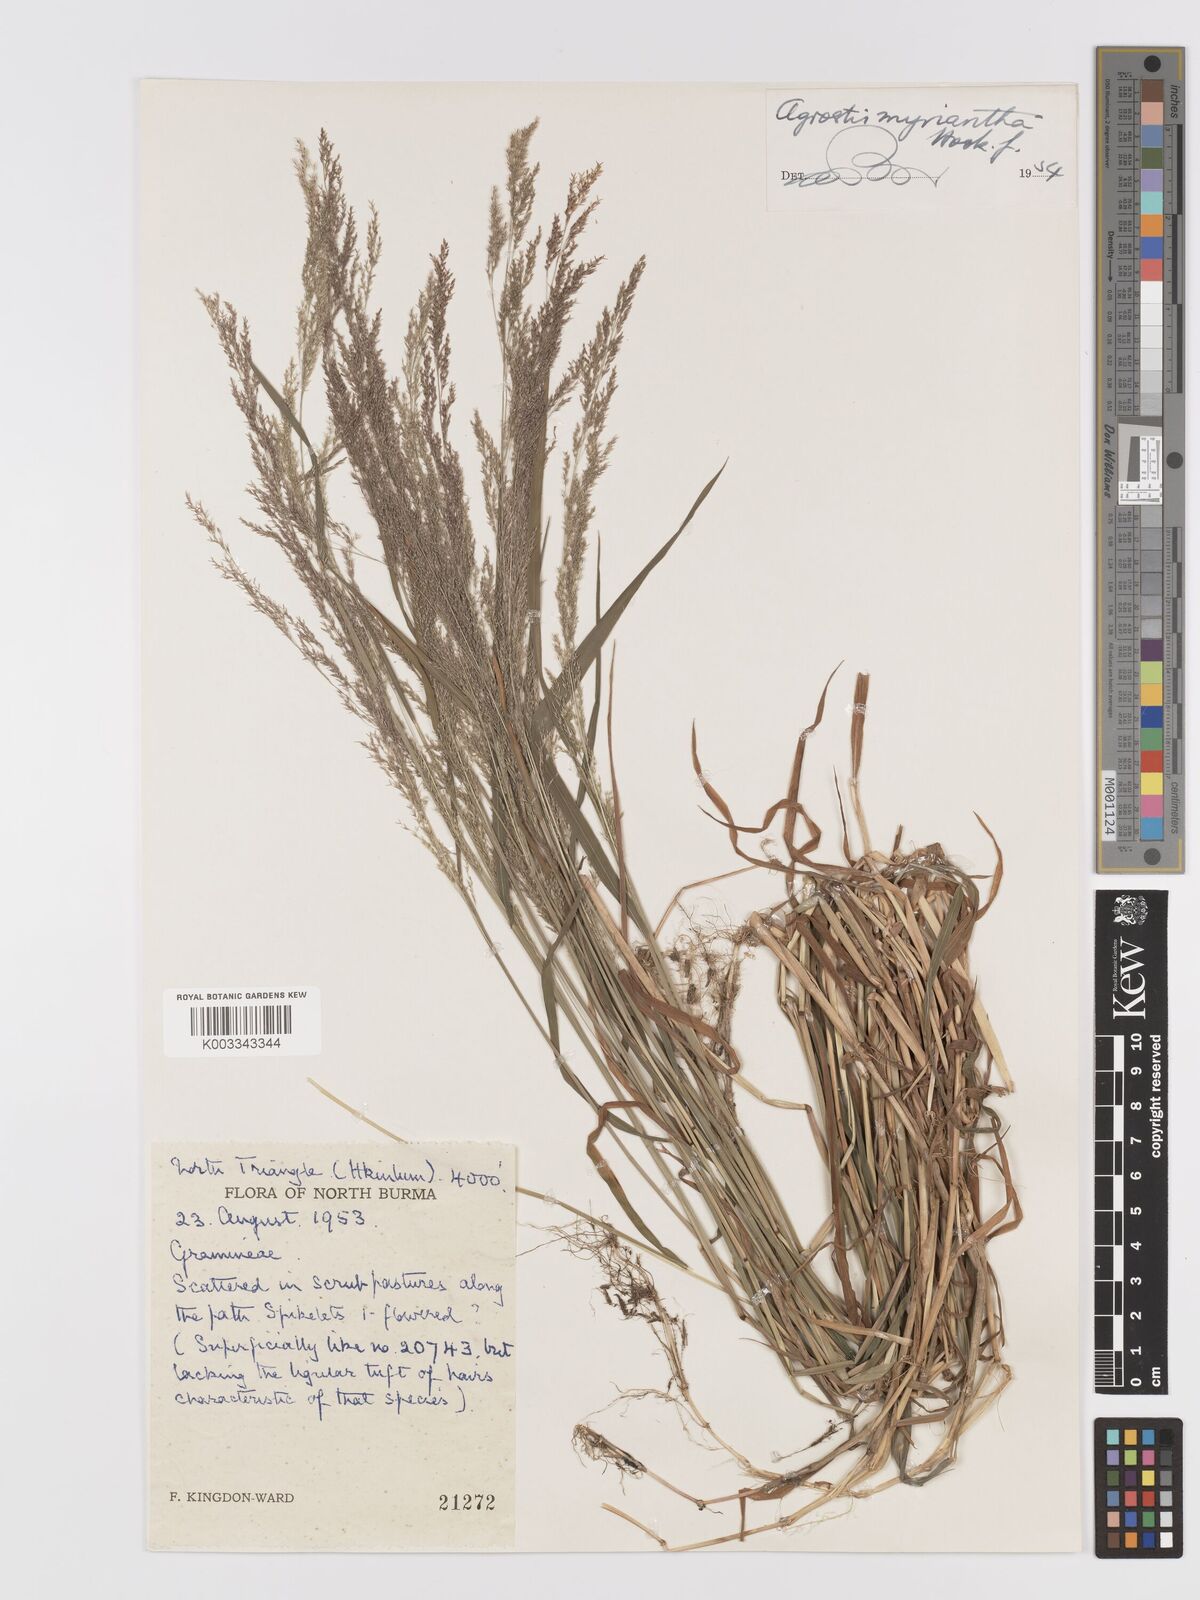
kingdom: Plantae
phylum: Tracheophyta
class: Liliopsida
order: Poales
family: Poaceae
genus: Agrostis
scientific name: Agrostis micrantha
